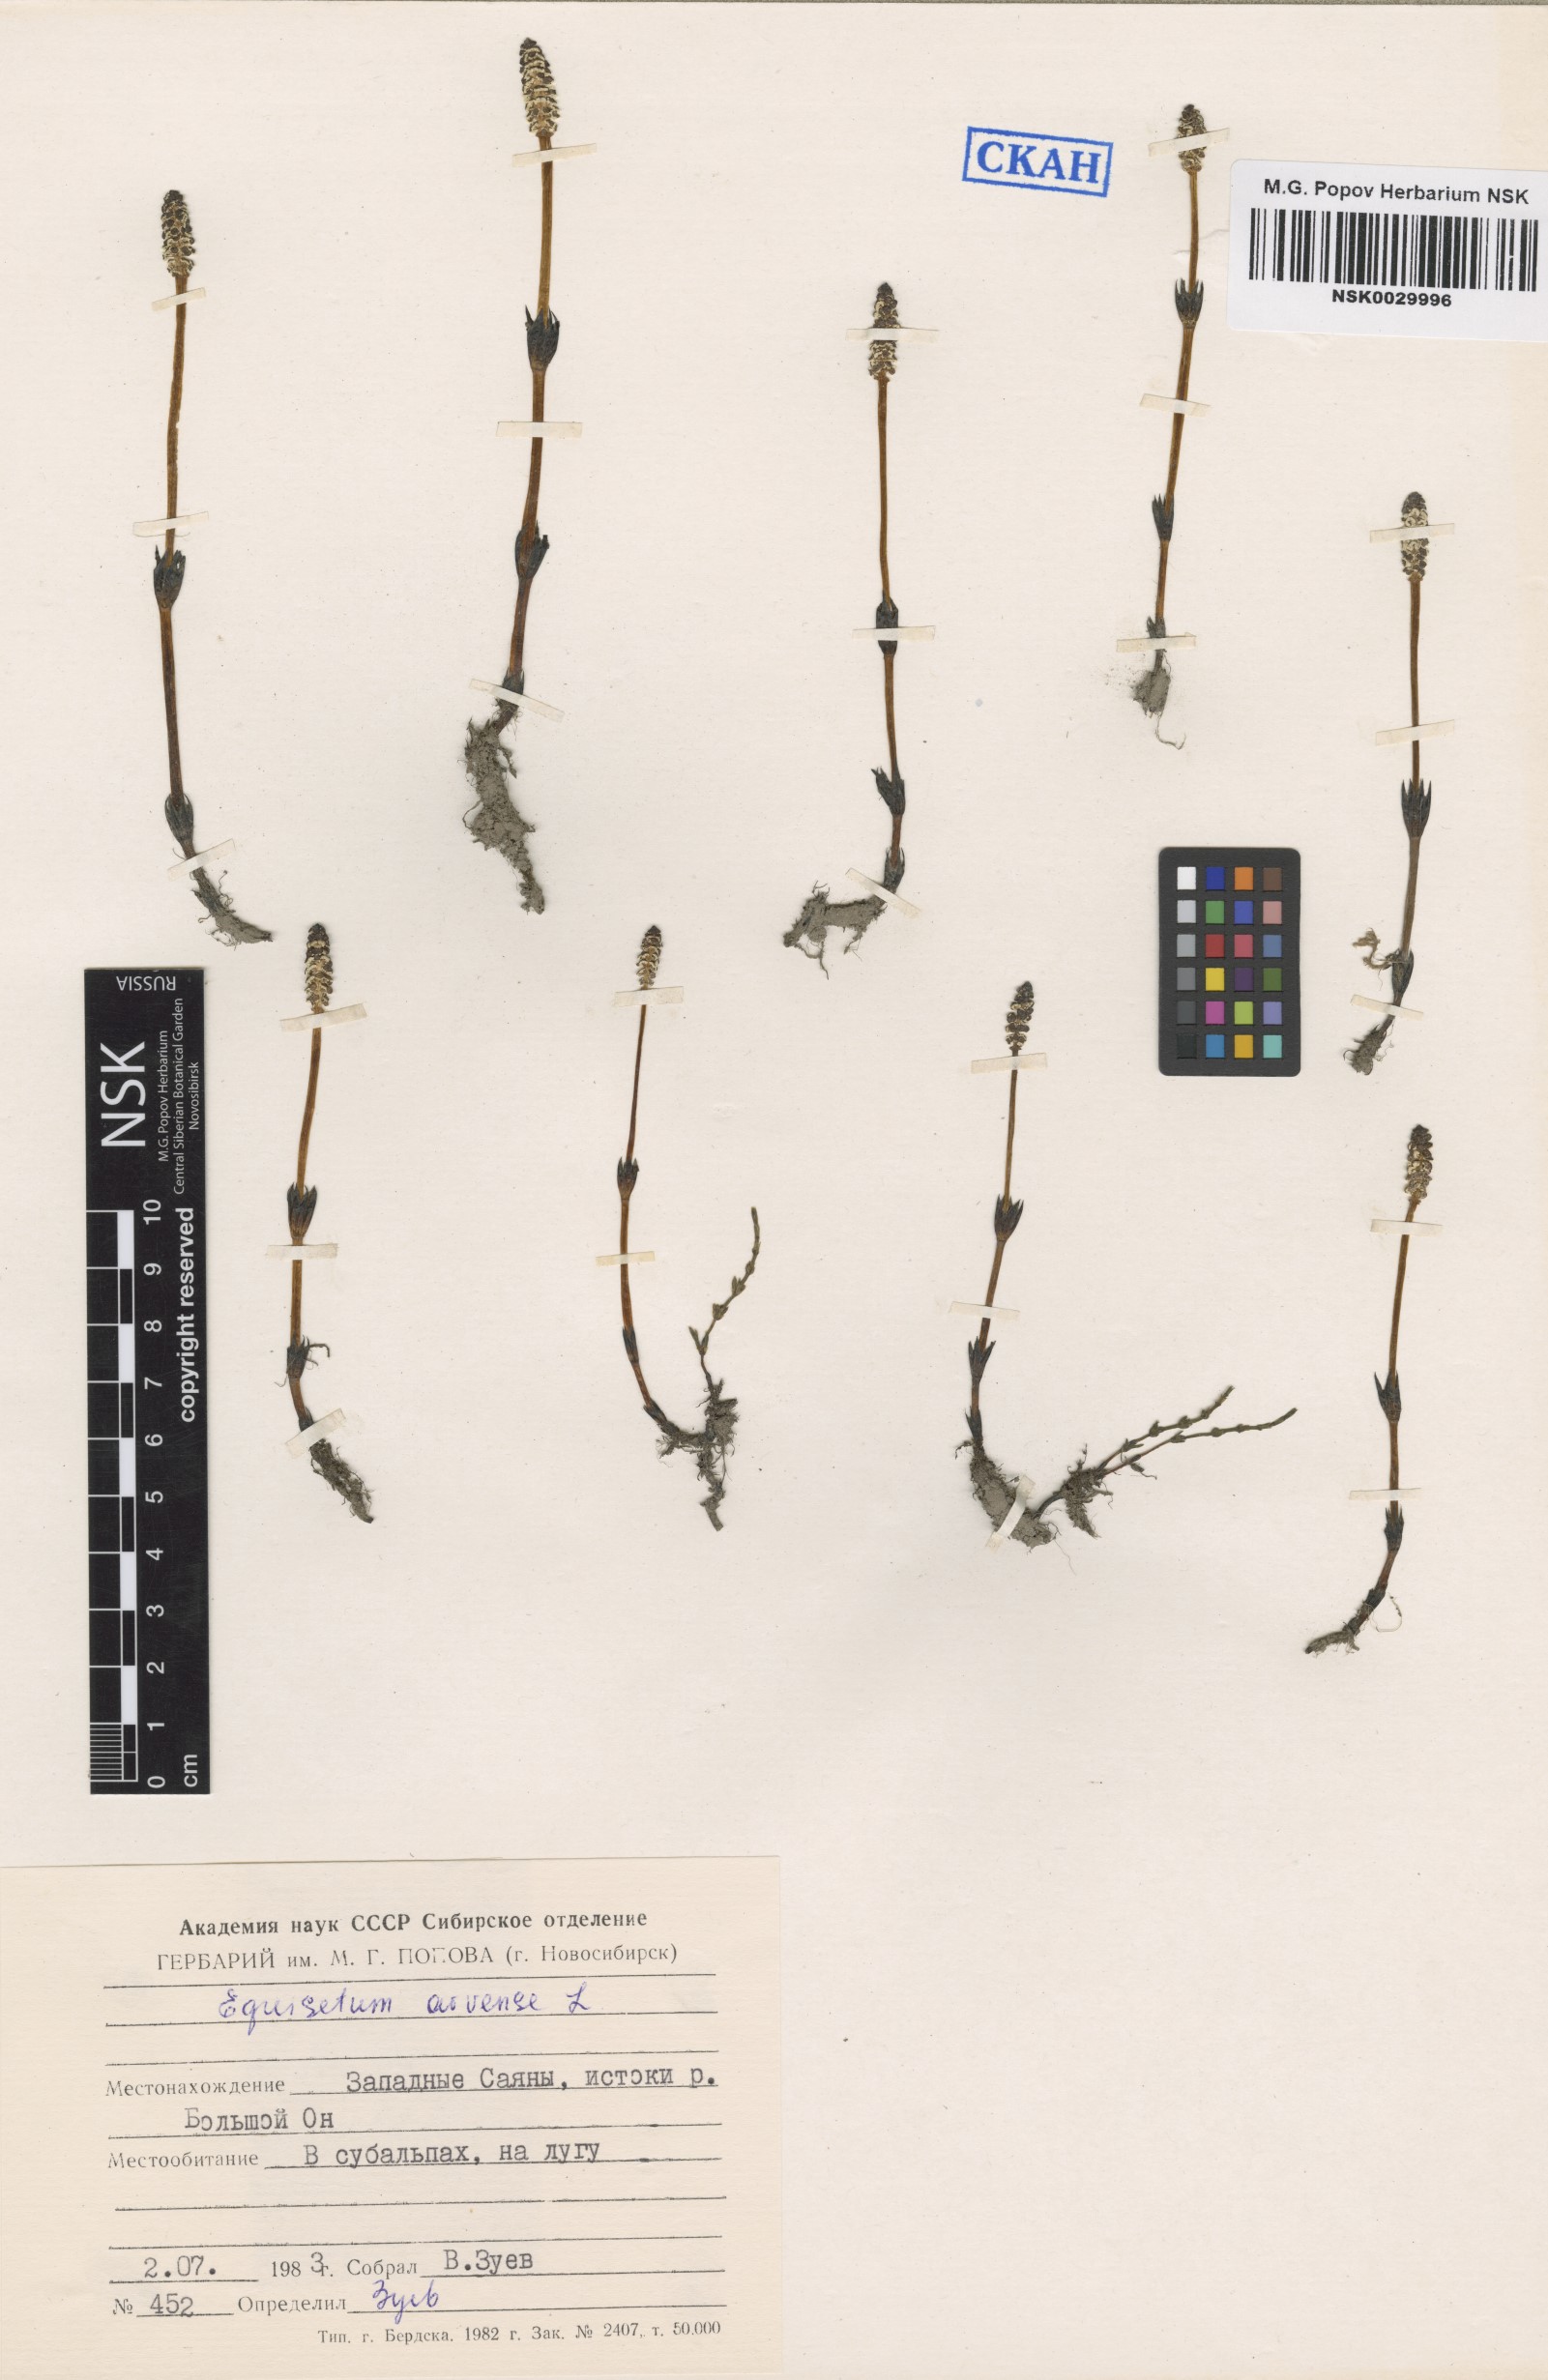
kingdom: Plantae
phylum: Tracheophyta
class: Polypodiopsida
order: Equisetales
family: Equisetaceae
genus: Equisetum
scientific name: Equisetum arvense
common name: Field horsetail
